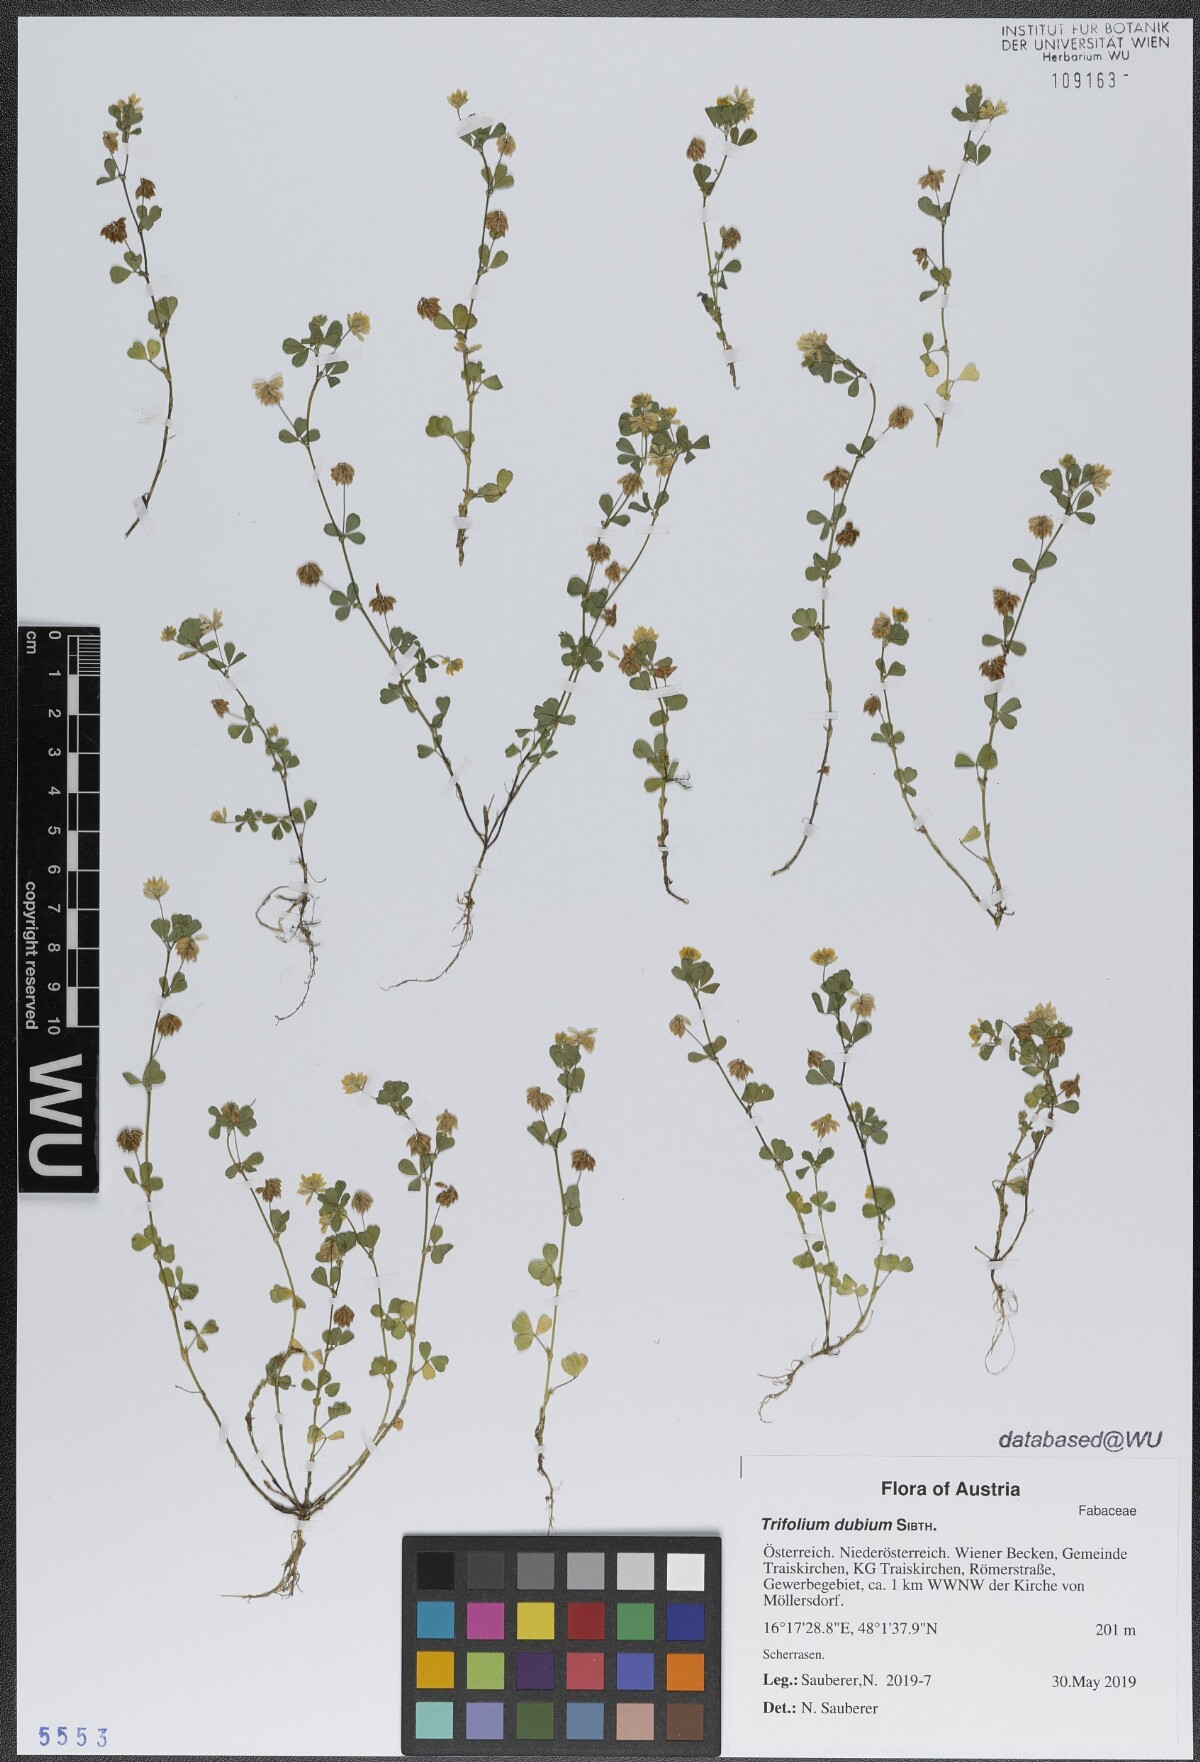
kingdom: Plantae
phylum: Tracheophyta
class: Magnoliopsida
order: Fabales
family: Fabaceae
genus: Trifolium
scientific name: Trifolium dubium
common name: Suckling clover
